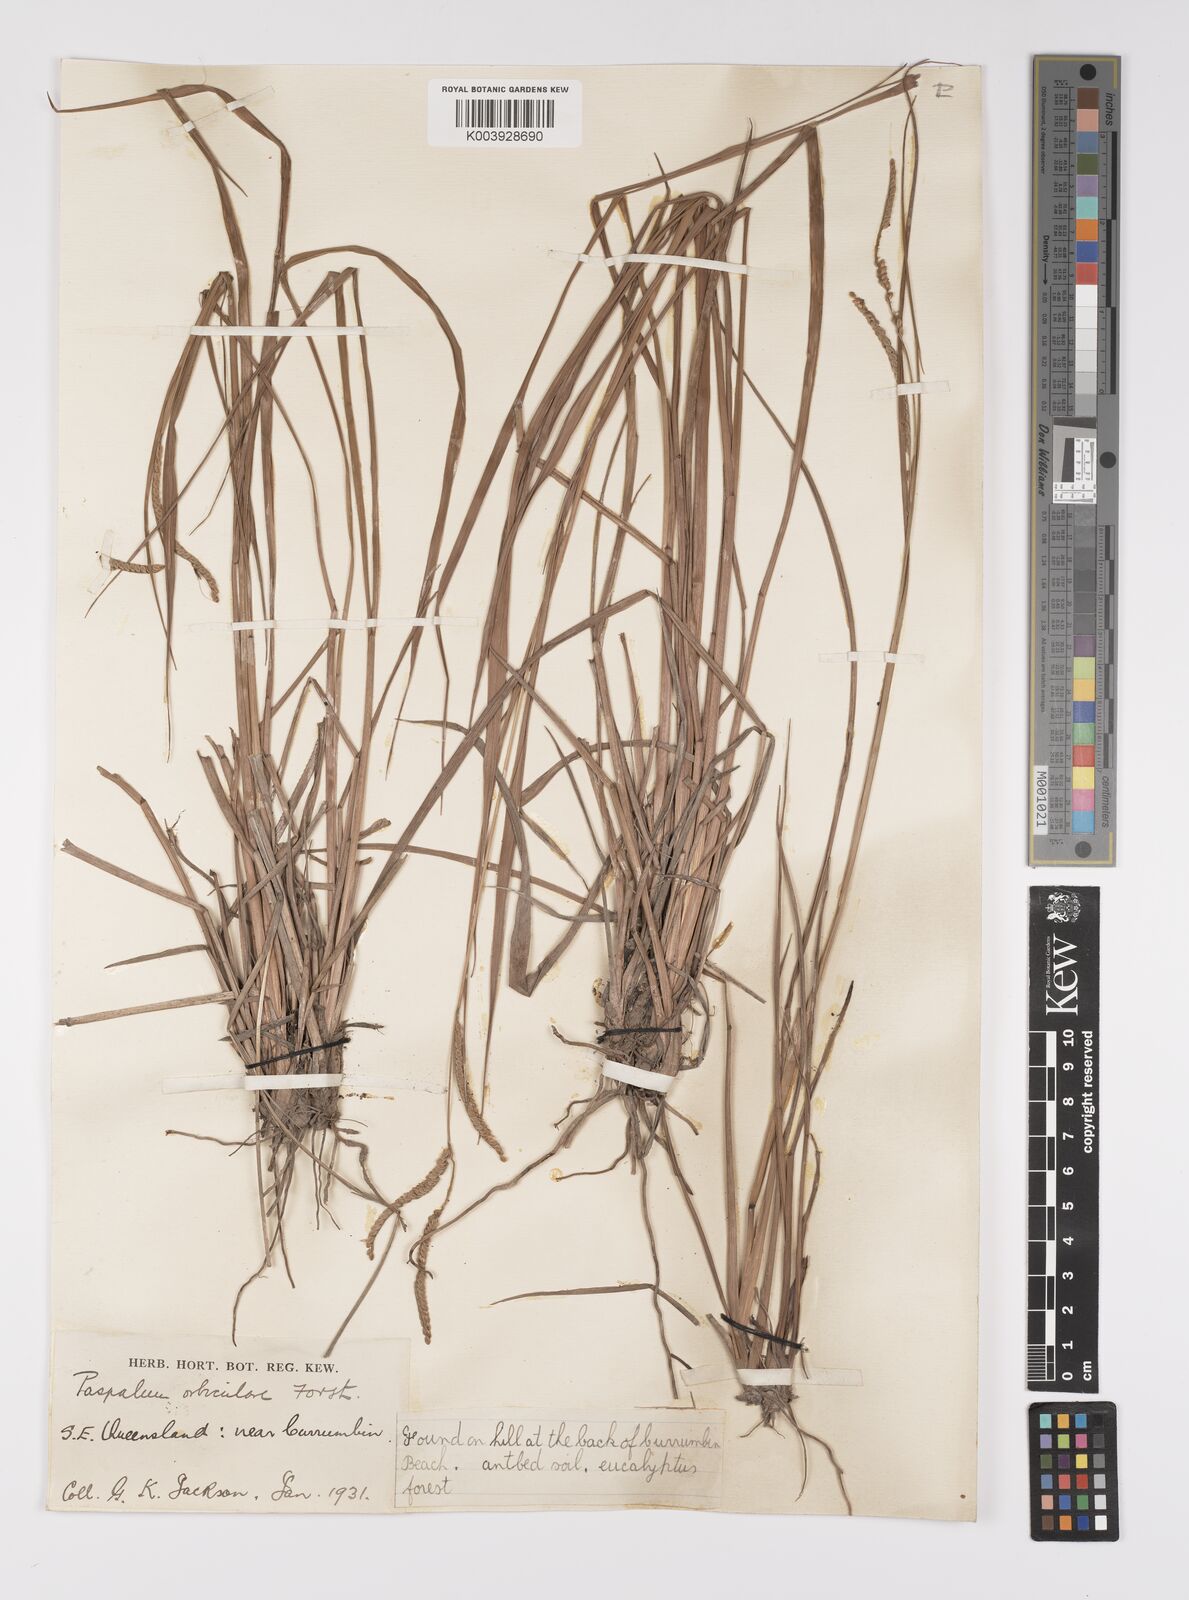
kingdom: Plantae
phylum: Tracheophyta
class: Liliopsida
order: Poales
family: Poaceae
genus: Paspalum
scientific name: Paspalum scrobiculatum
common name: Kodo millet
